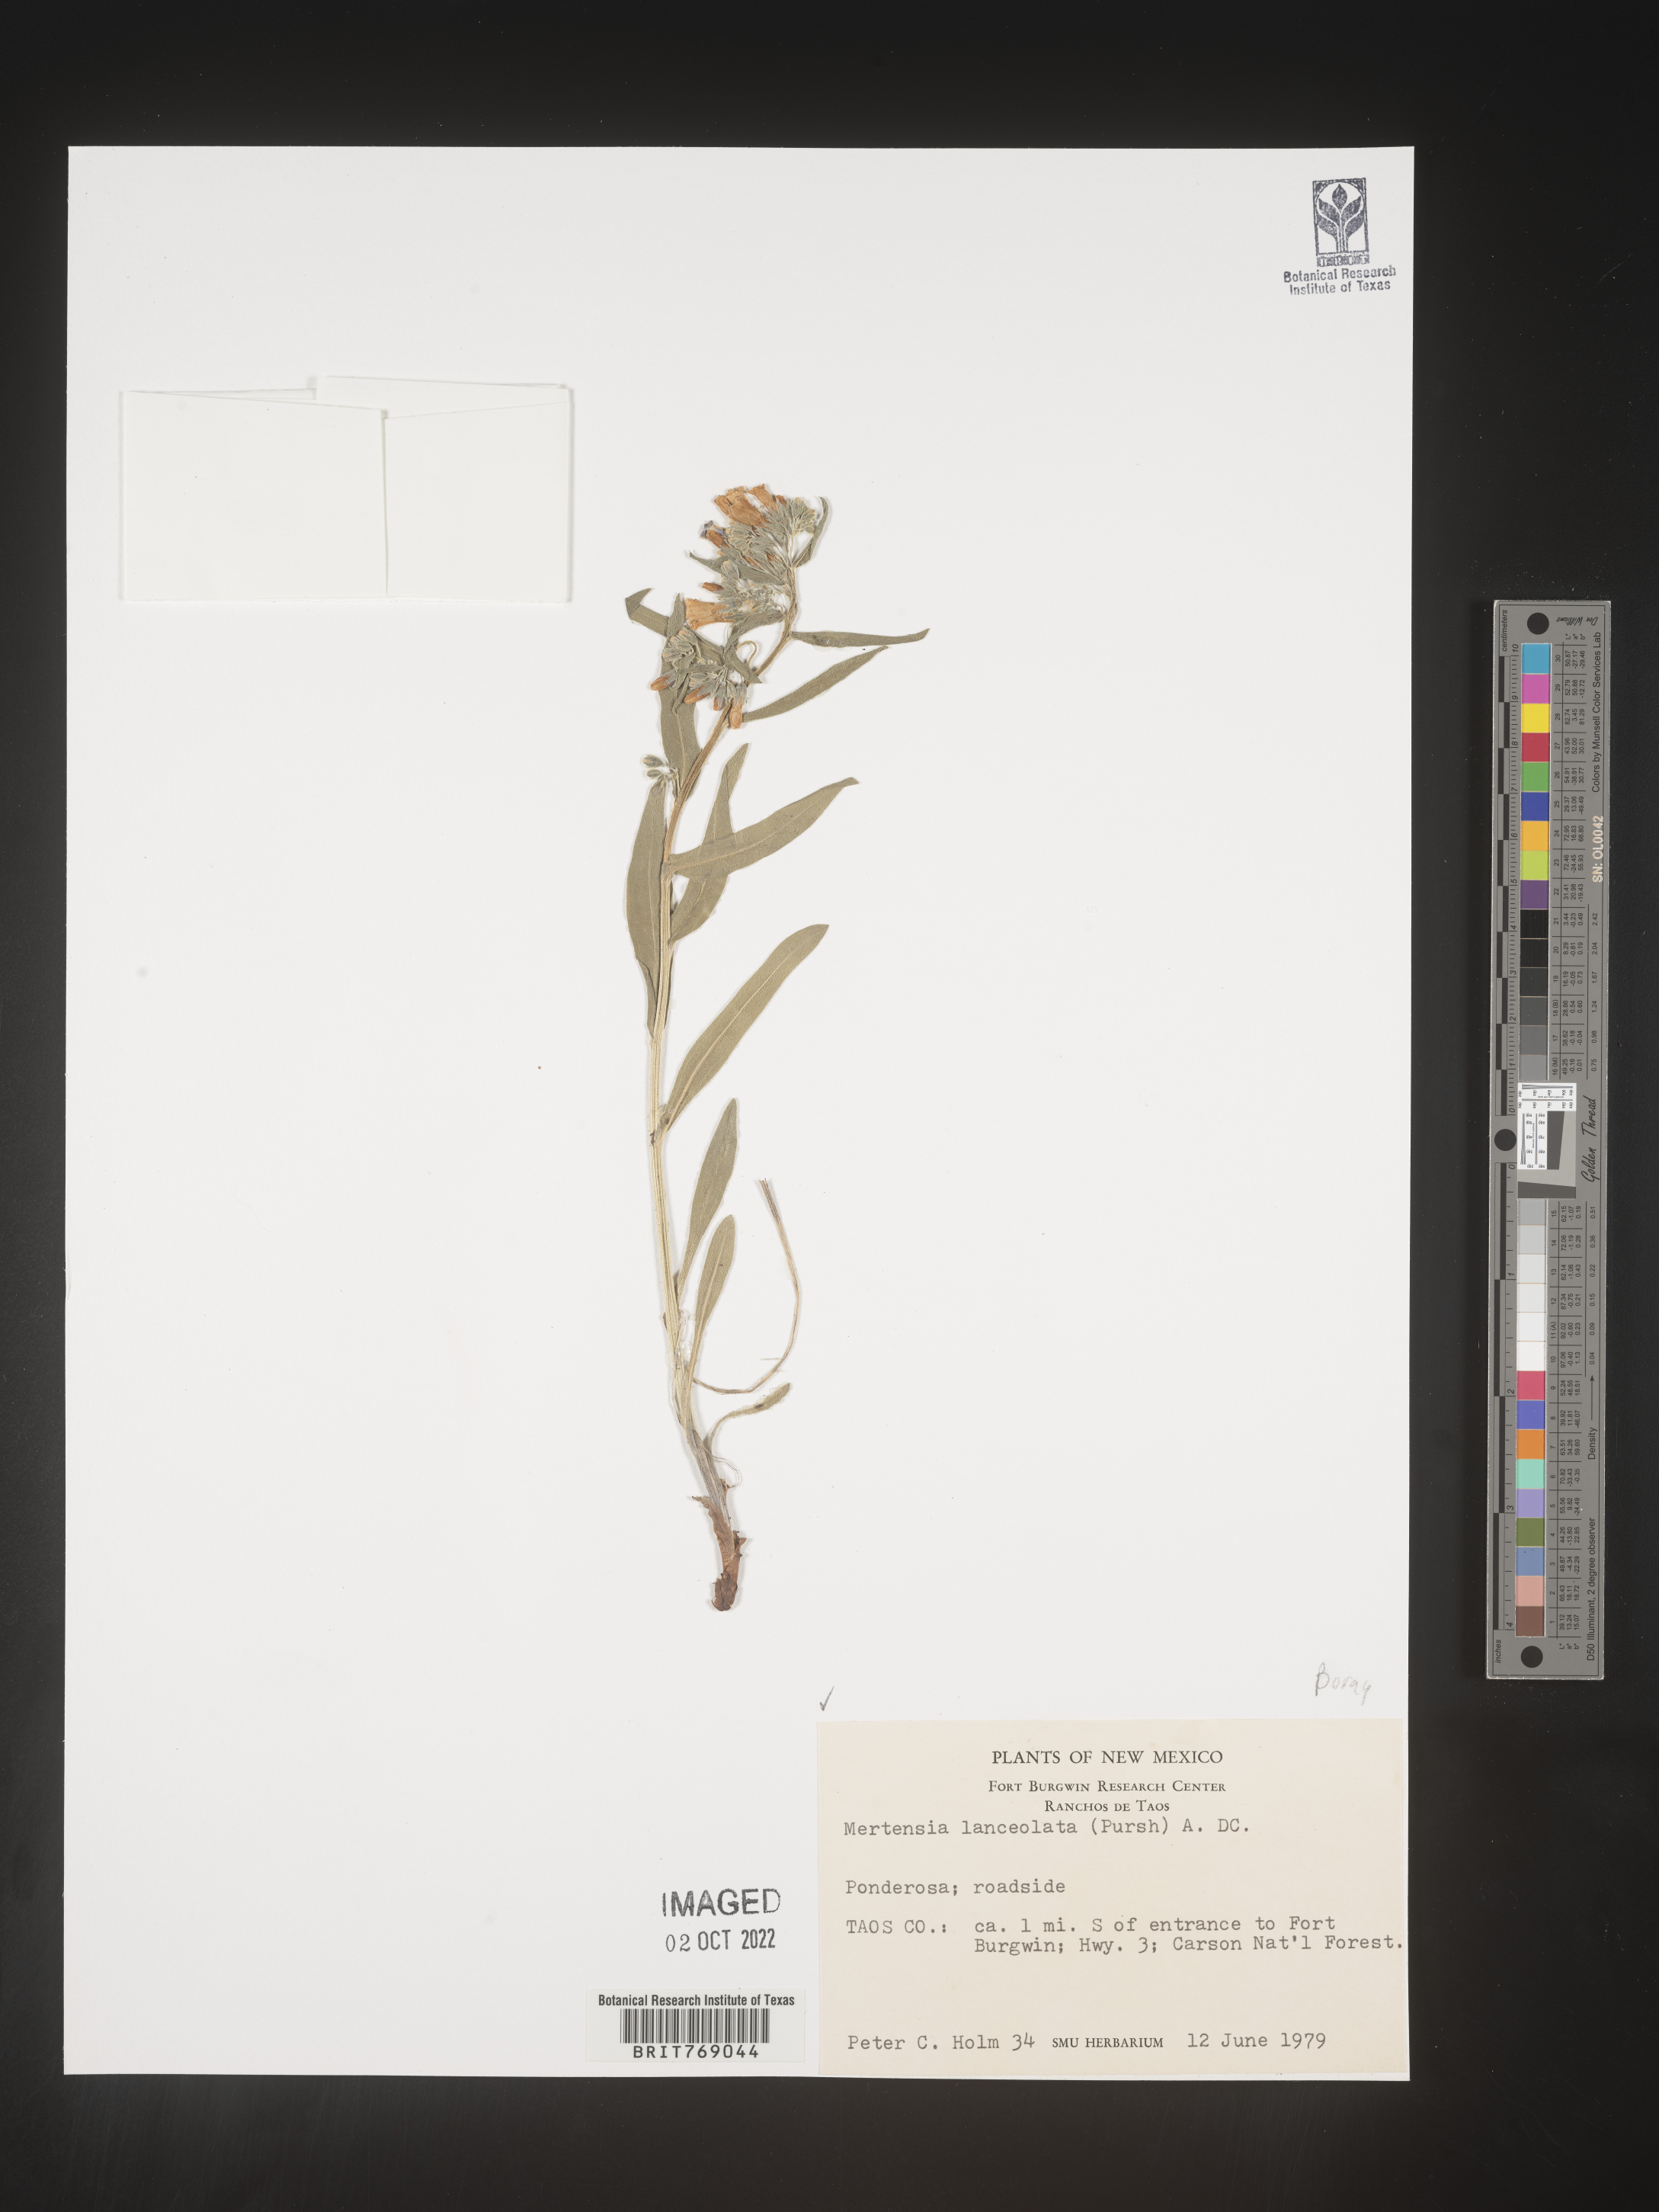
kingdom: Plantae
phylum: Tracheophyta
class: Magnoliopsida
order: Boraginales
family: Boraginaceae
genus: Mertensia
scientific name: Mertensia
